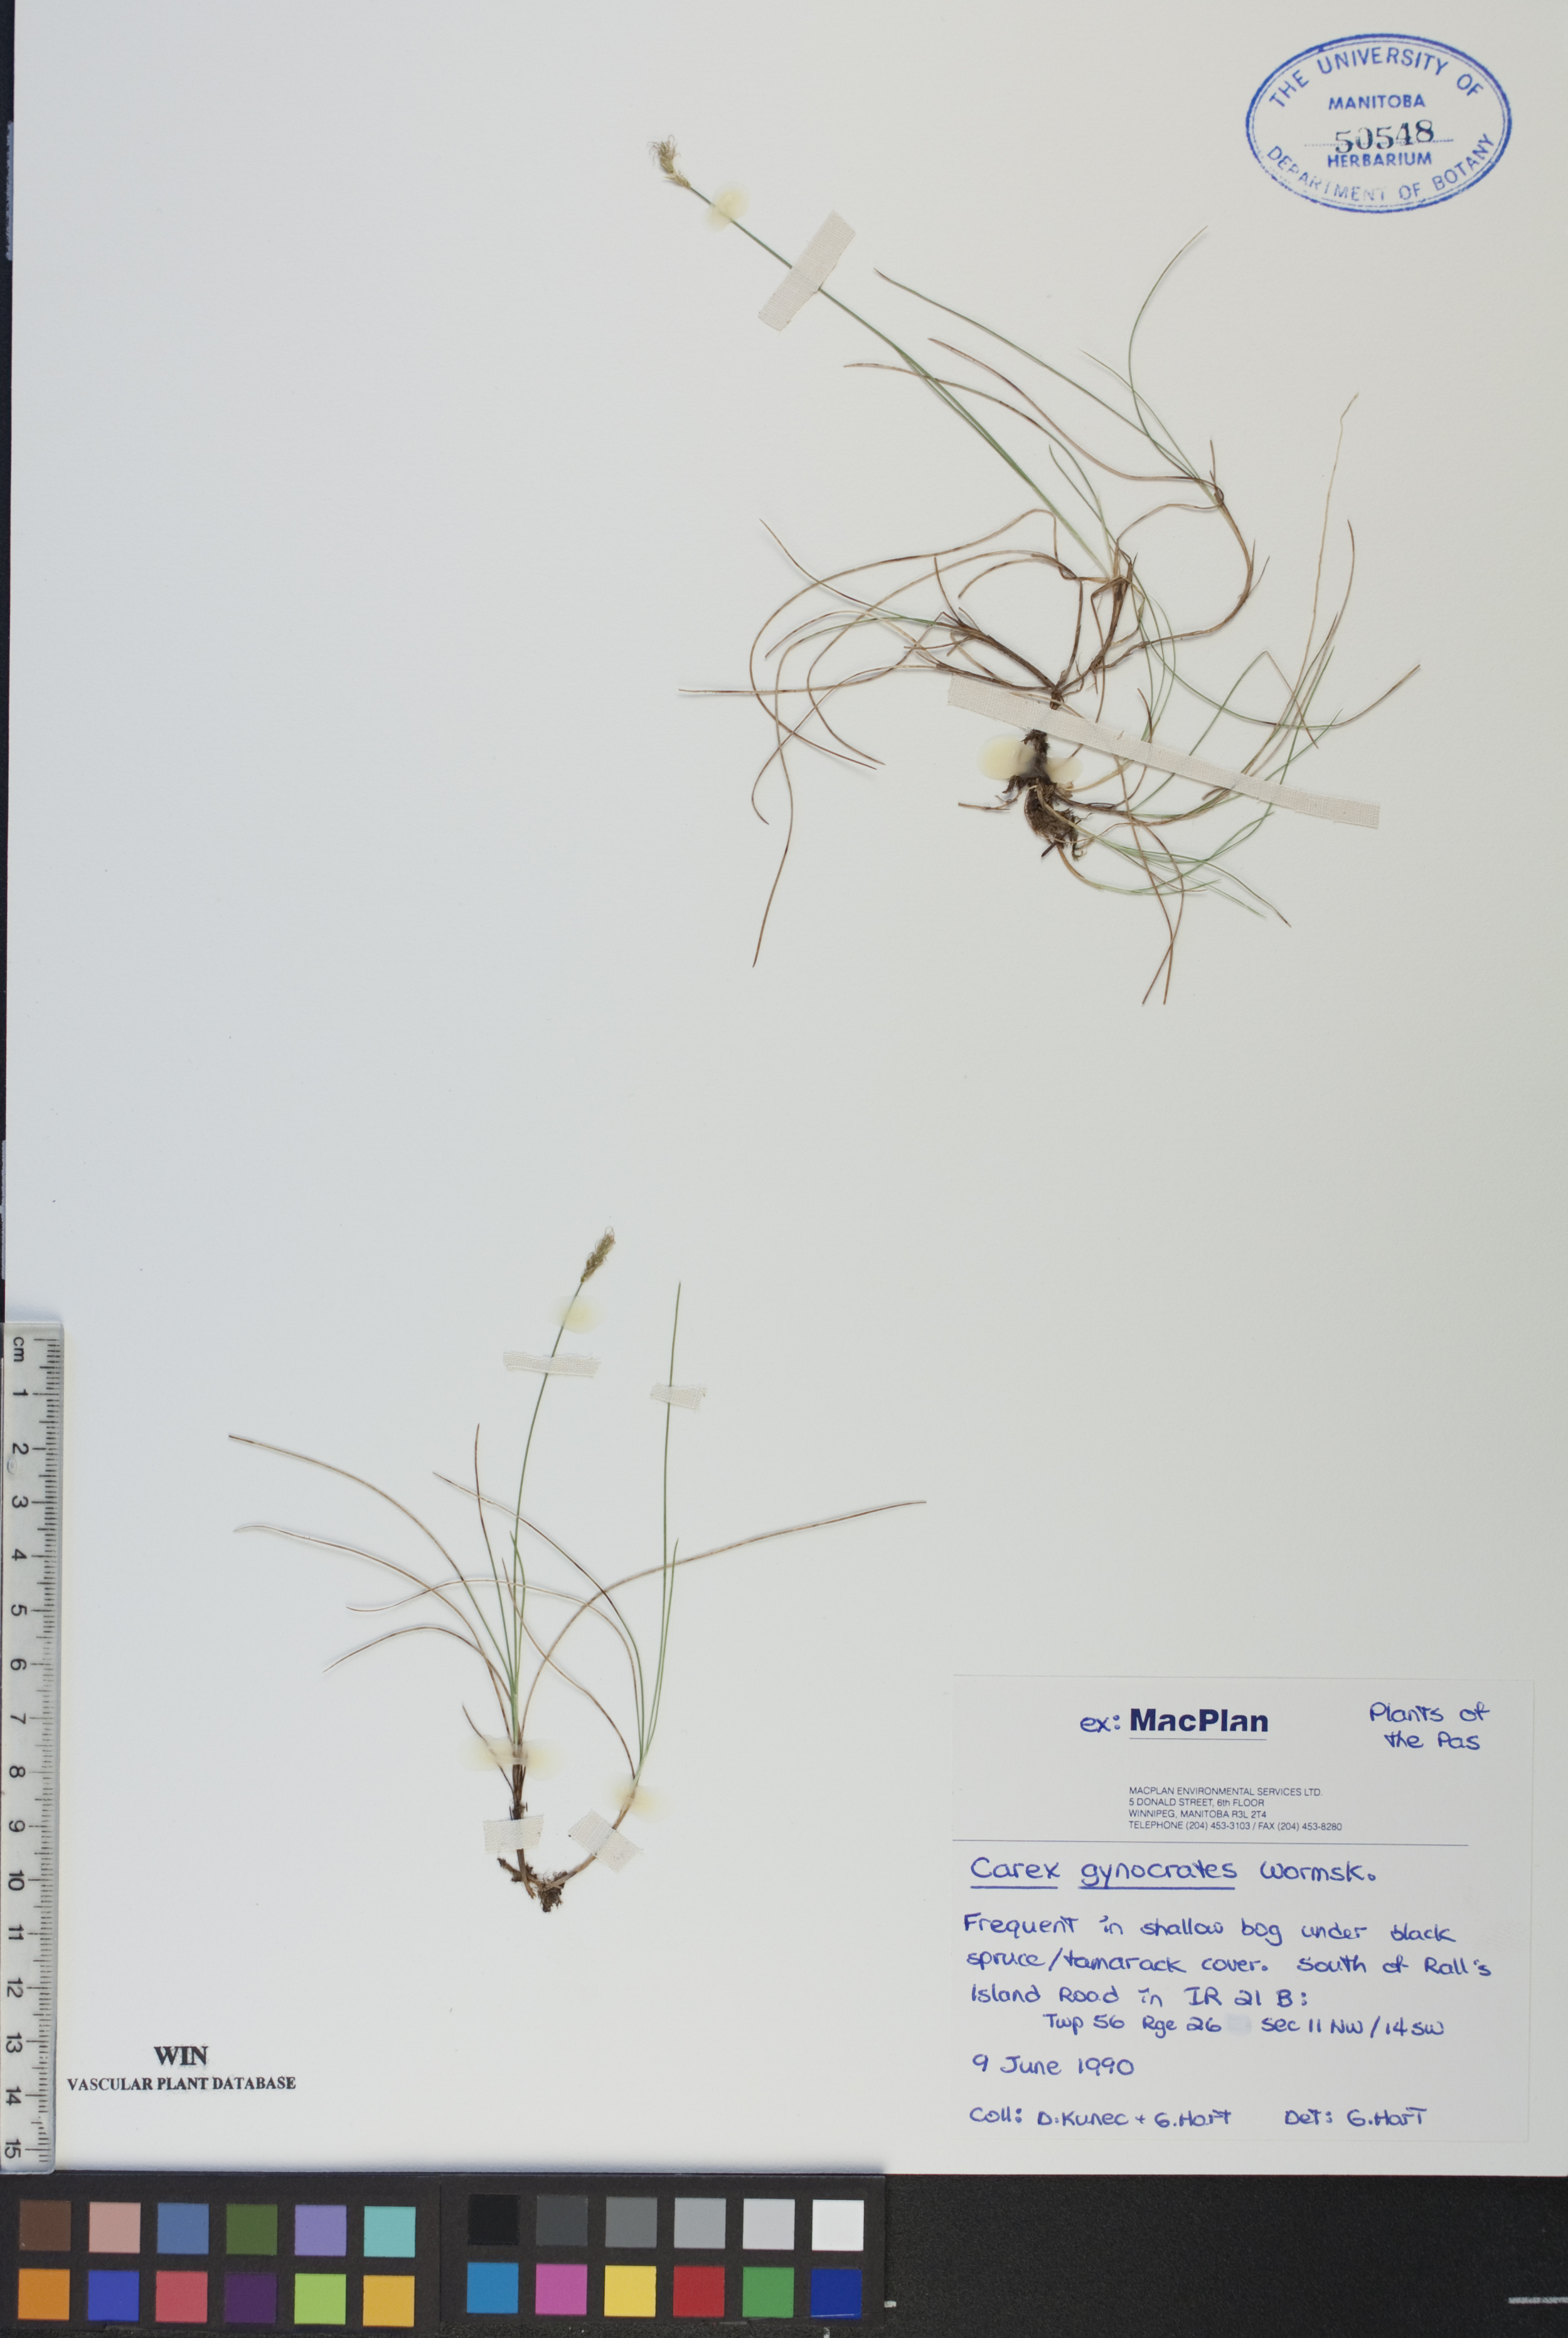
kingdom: Plantae
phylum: Tracheophyta
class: Liliopsida
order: Poales
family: Cyperaceae
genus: Carex
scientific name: Carex nardina
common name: Nard sedge
